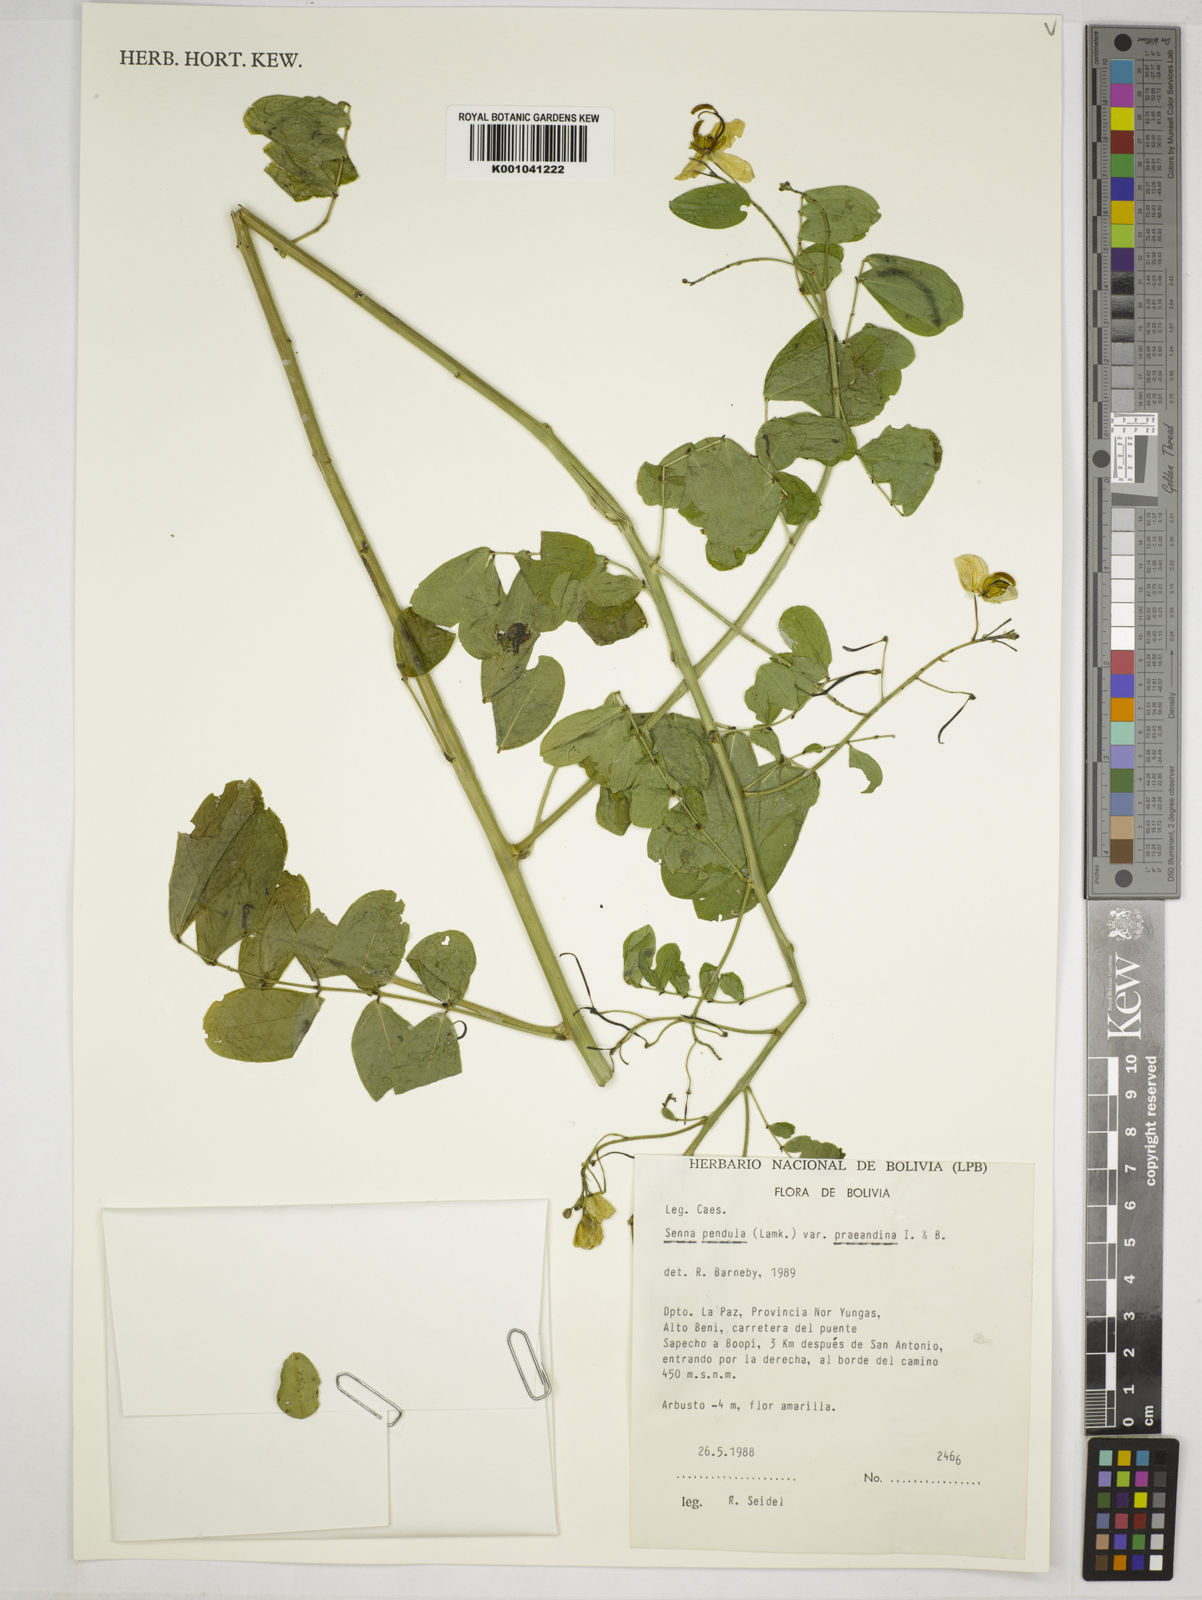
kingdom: Plantae
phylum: Tracheophyta
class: Magnoliopsida
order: Fabales
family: Fabaceae
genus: Senna
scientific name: Senna pendula
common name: Easter cassia
